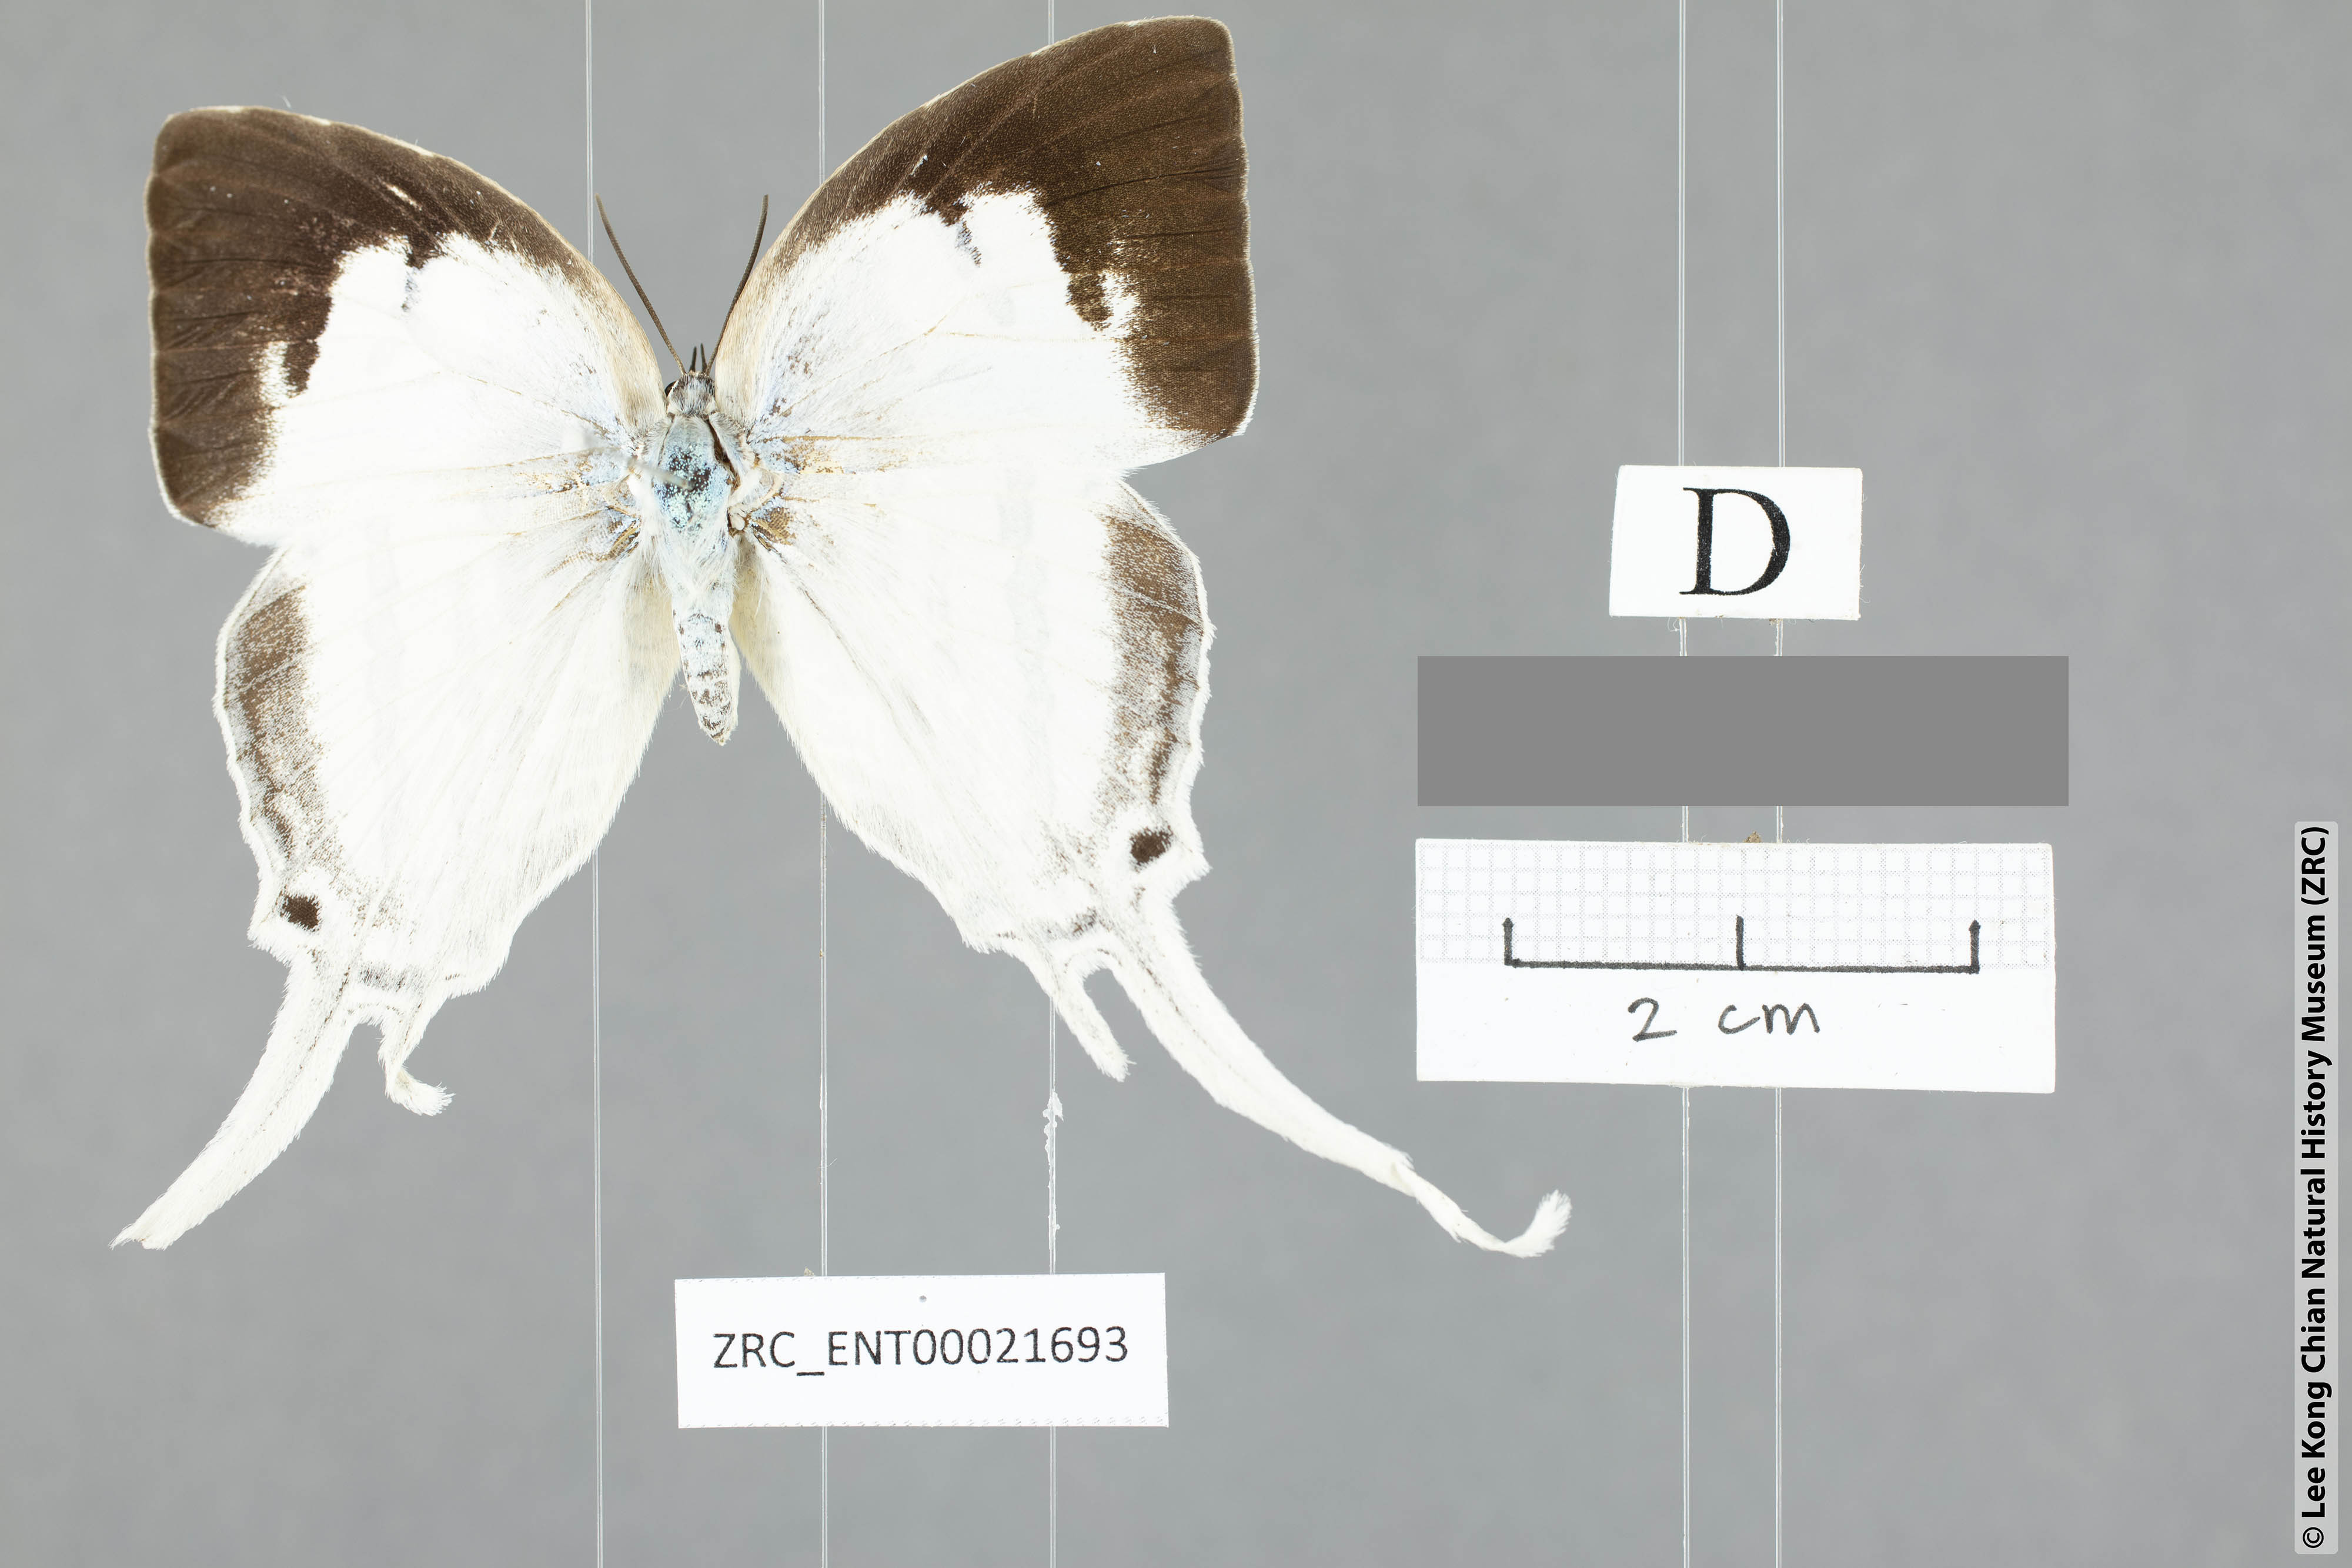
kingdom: Animalia
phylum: Arthropoda
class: Insecta
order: Lepidoptera
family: Lycaenidae
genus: Neomyrina
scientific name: Neomyrina nivea
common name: White imperial butterfly
